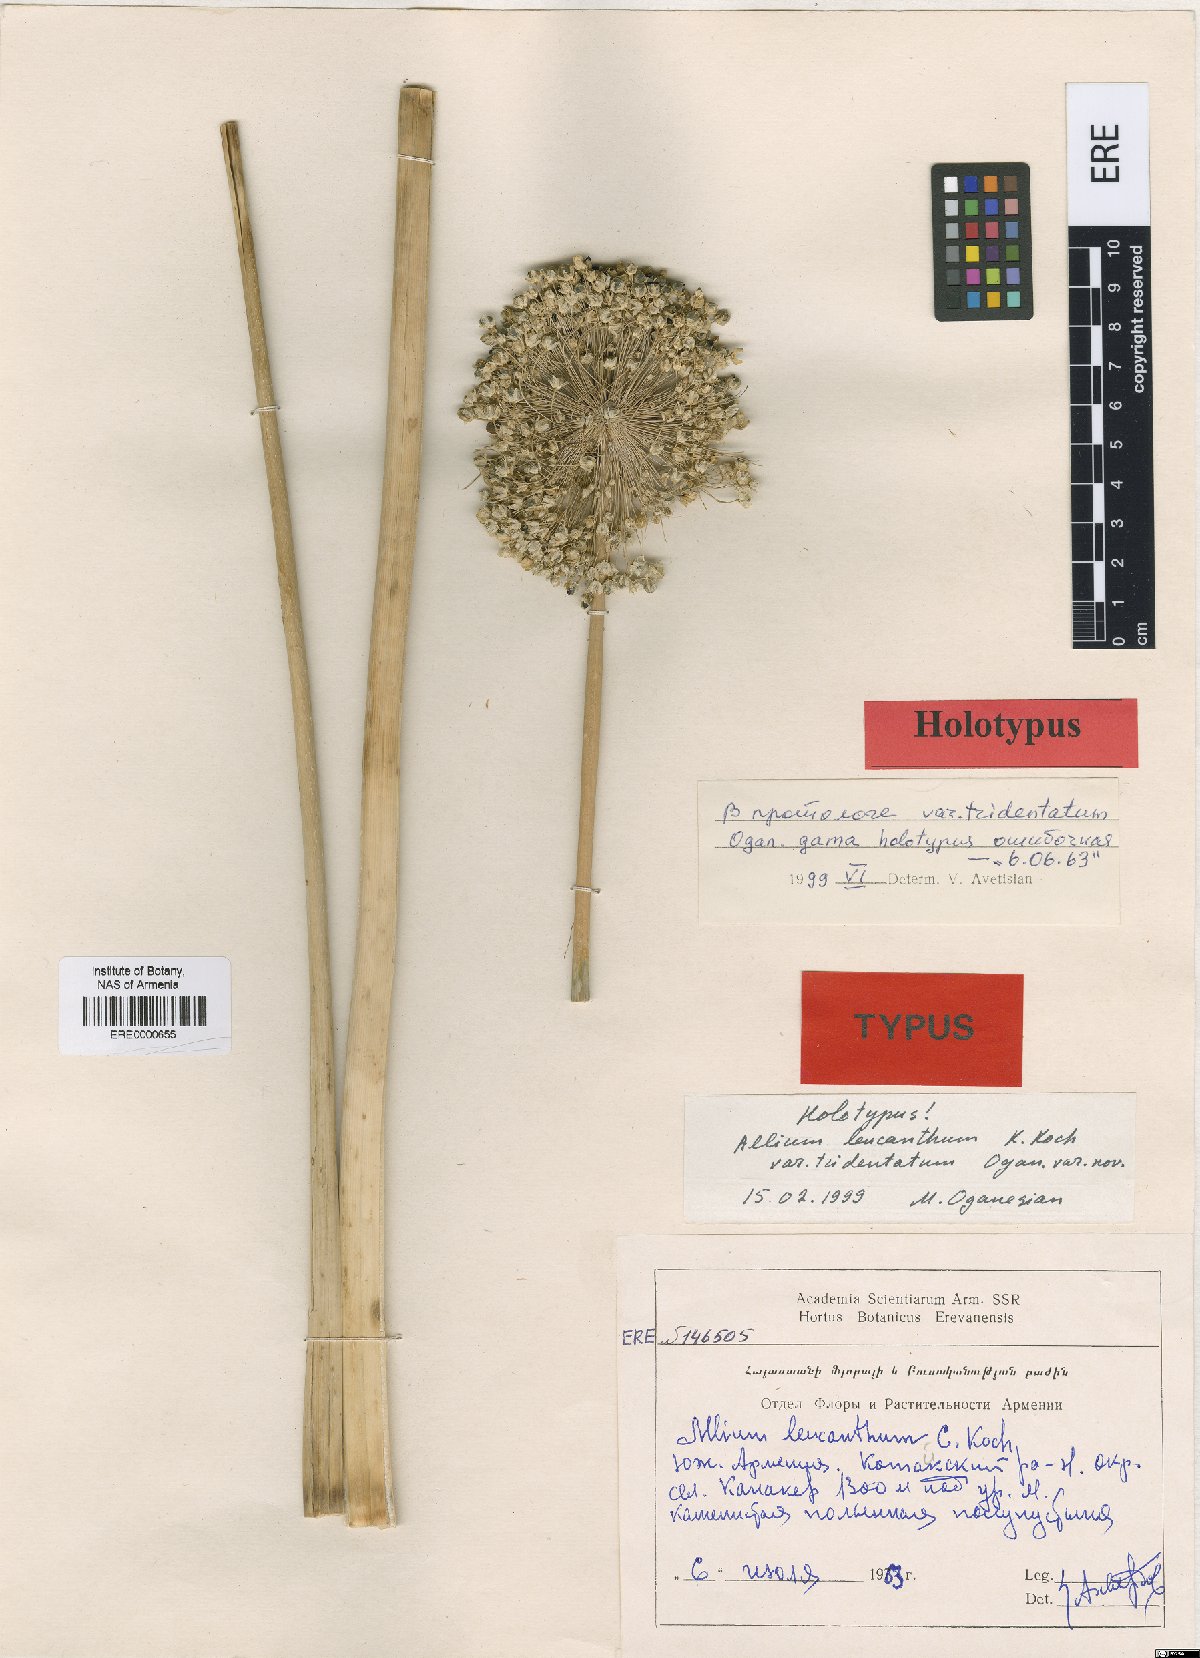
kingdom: Plantae
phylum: Tracheophyta
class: Liliopsida
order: Asparagales
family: Amaryllidaceae
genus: Allium
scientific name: Allium ampeloprasum
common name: Wild leek
